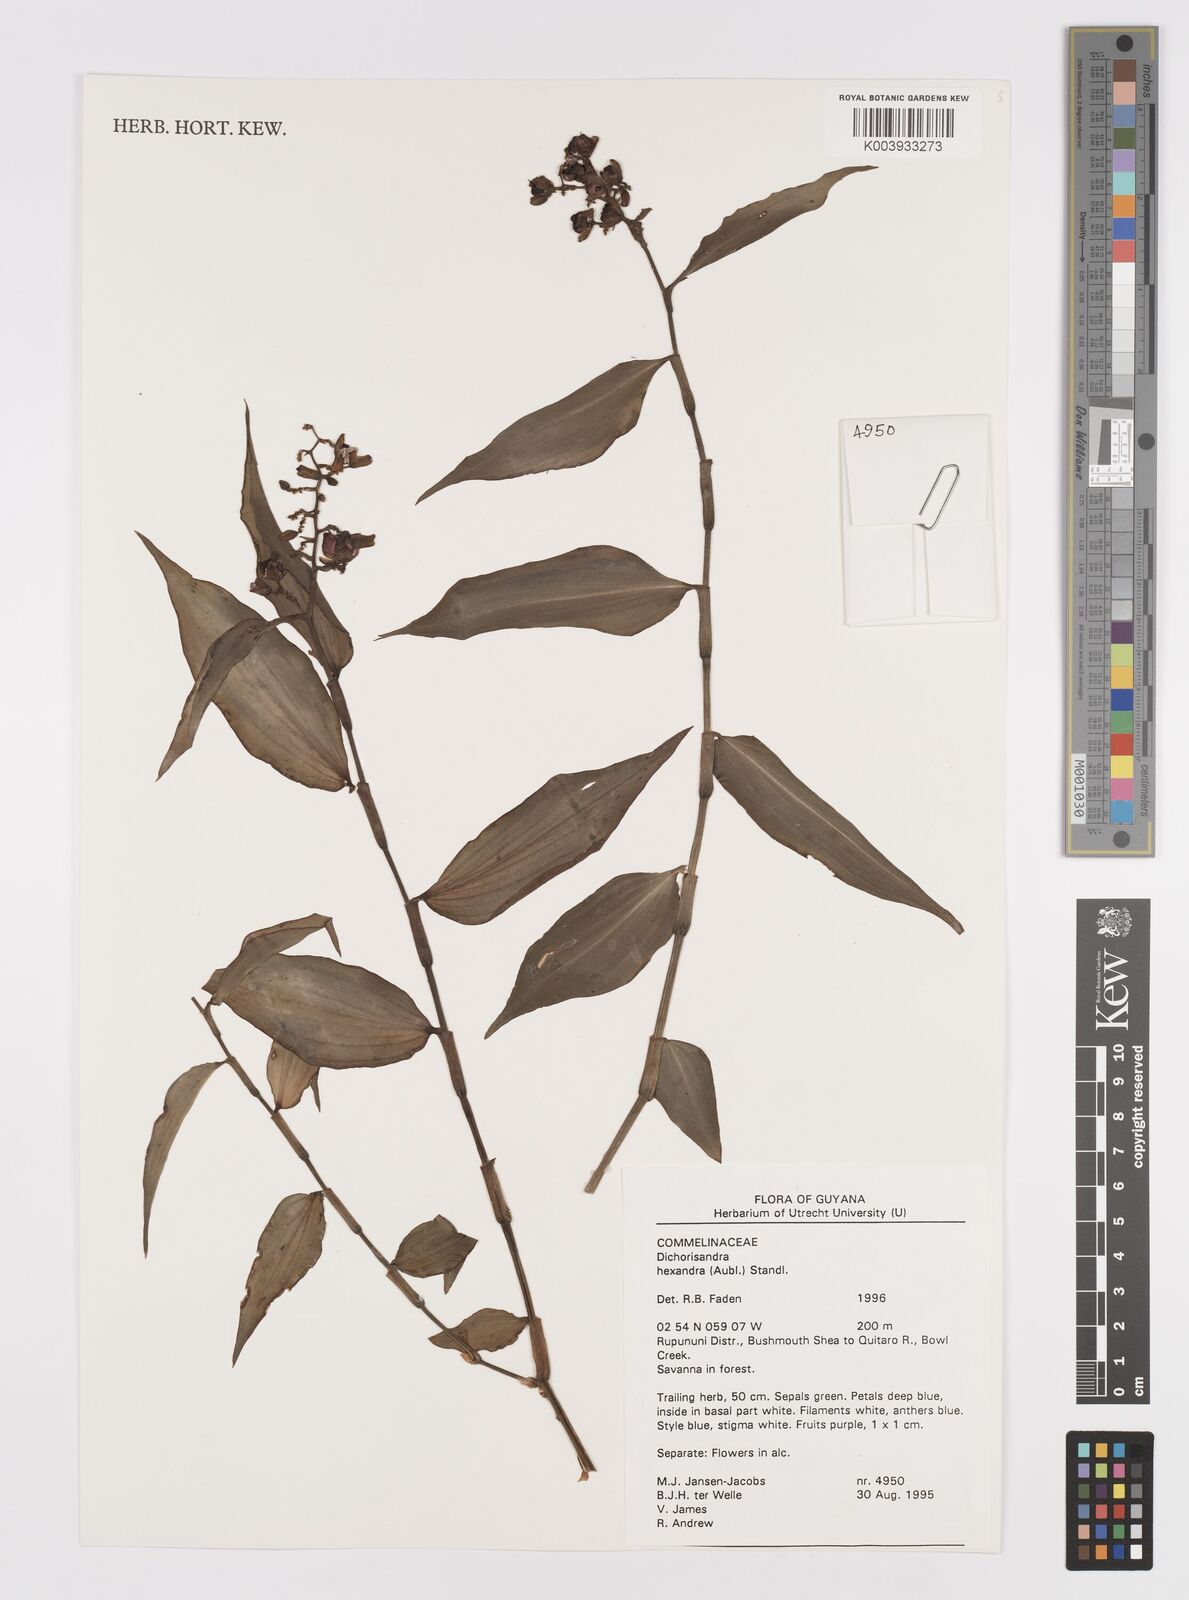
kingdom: Plantae
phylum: Tracheophyta
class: Liliopsida
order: Commelinales
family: Commelinaceae
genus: Dichorisandra
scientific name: Dichorisandra hexandra
